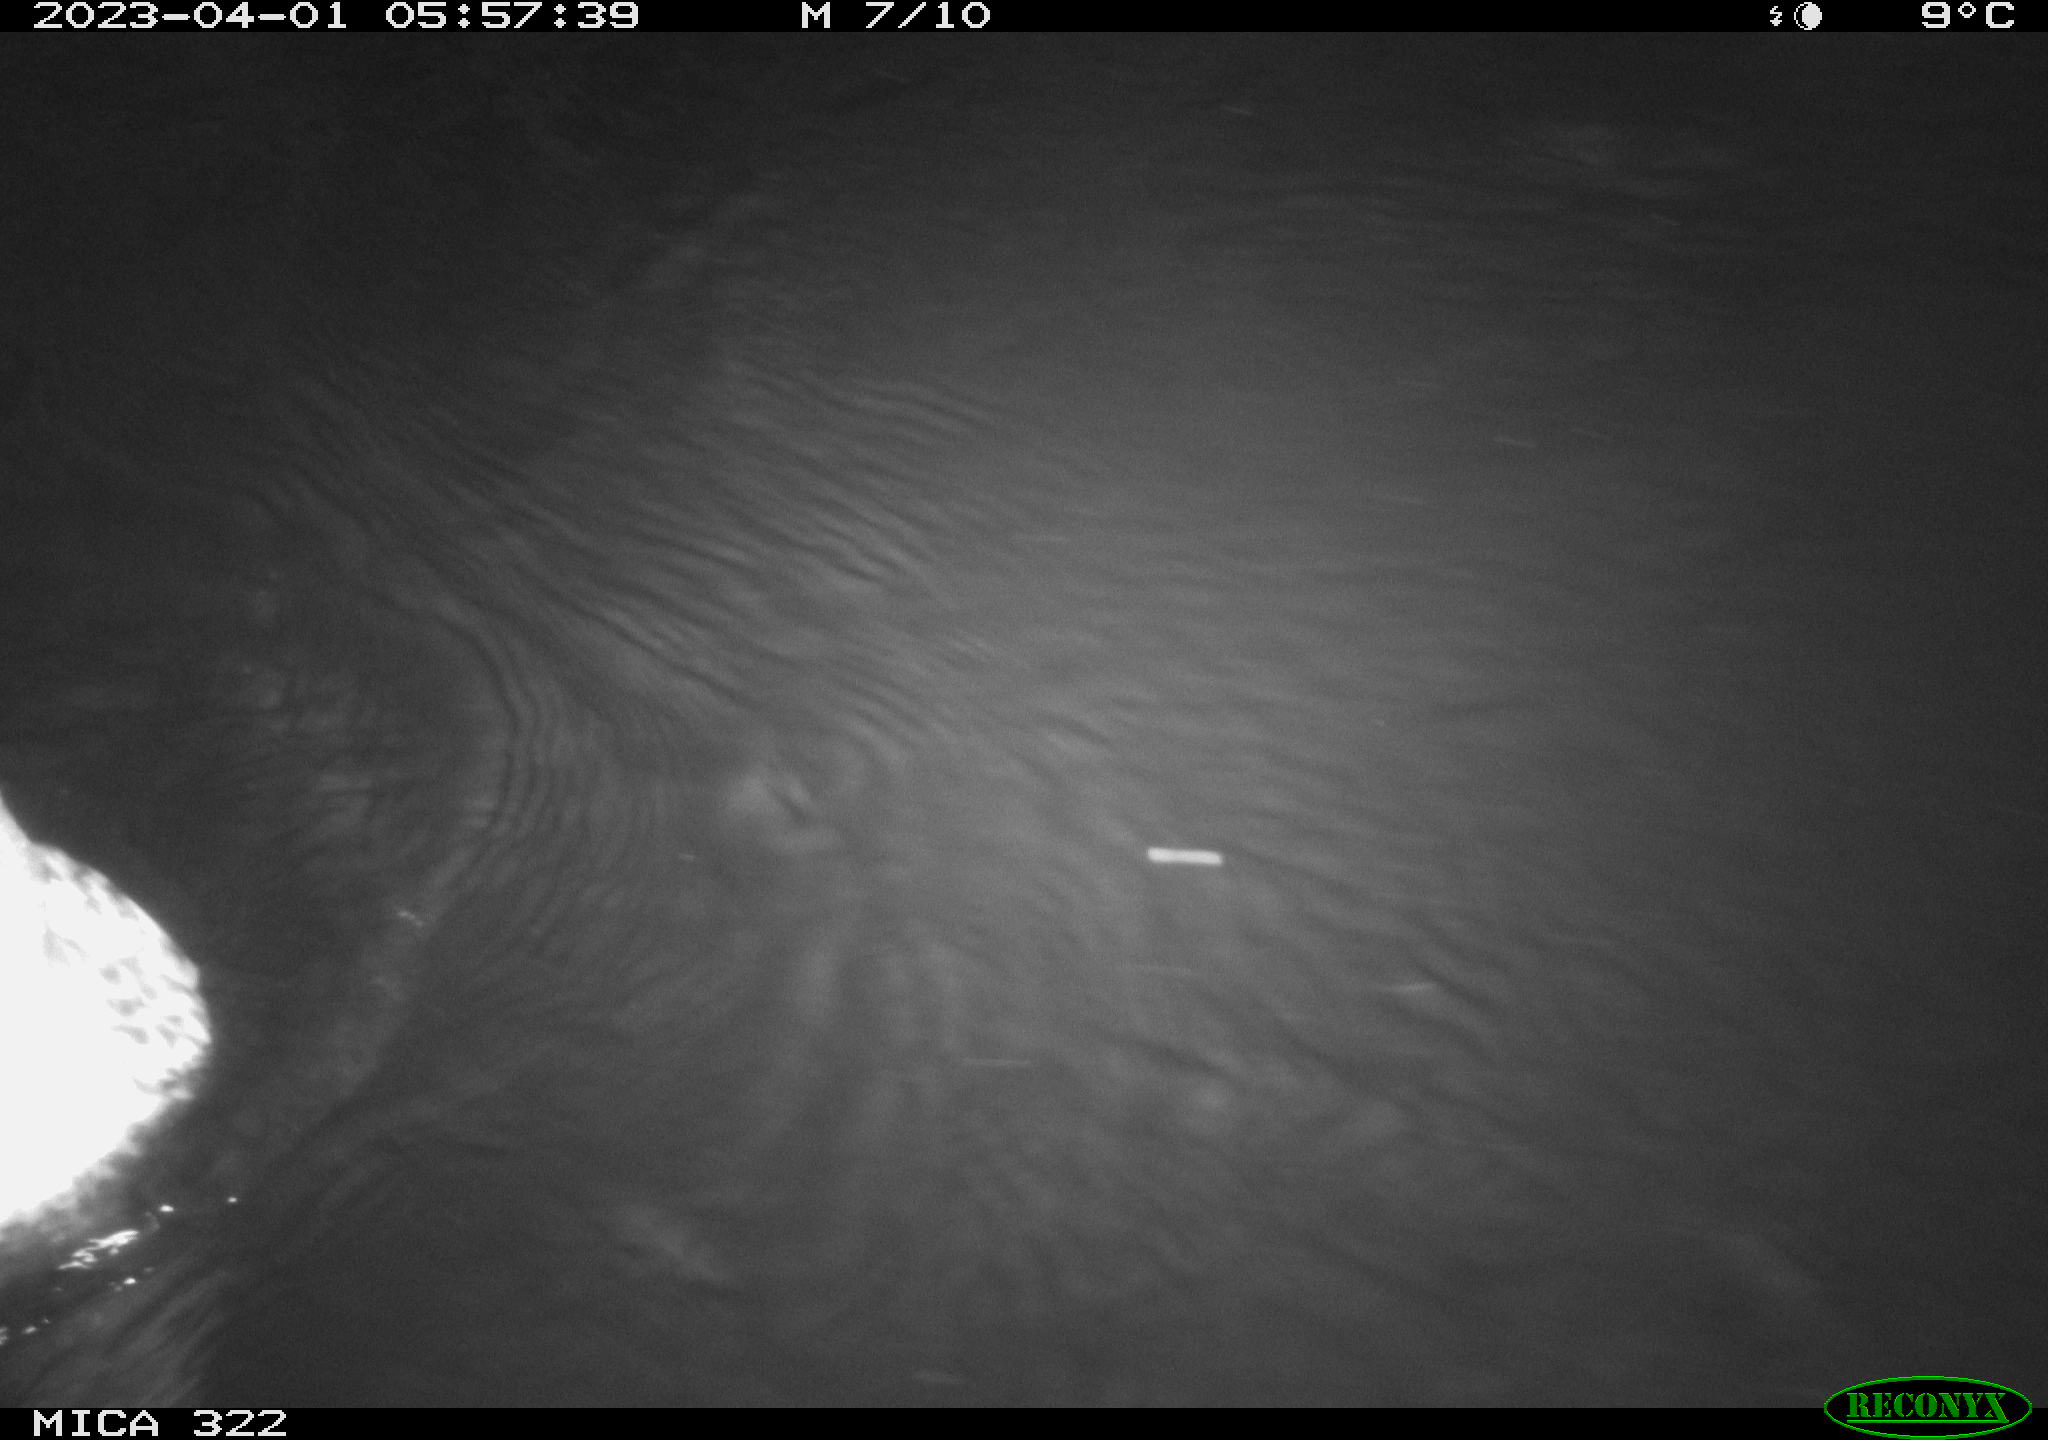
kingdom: Animalia
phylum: Chordata
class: Mammalia
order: Rodentia
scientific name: Rodentia
